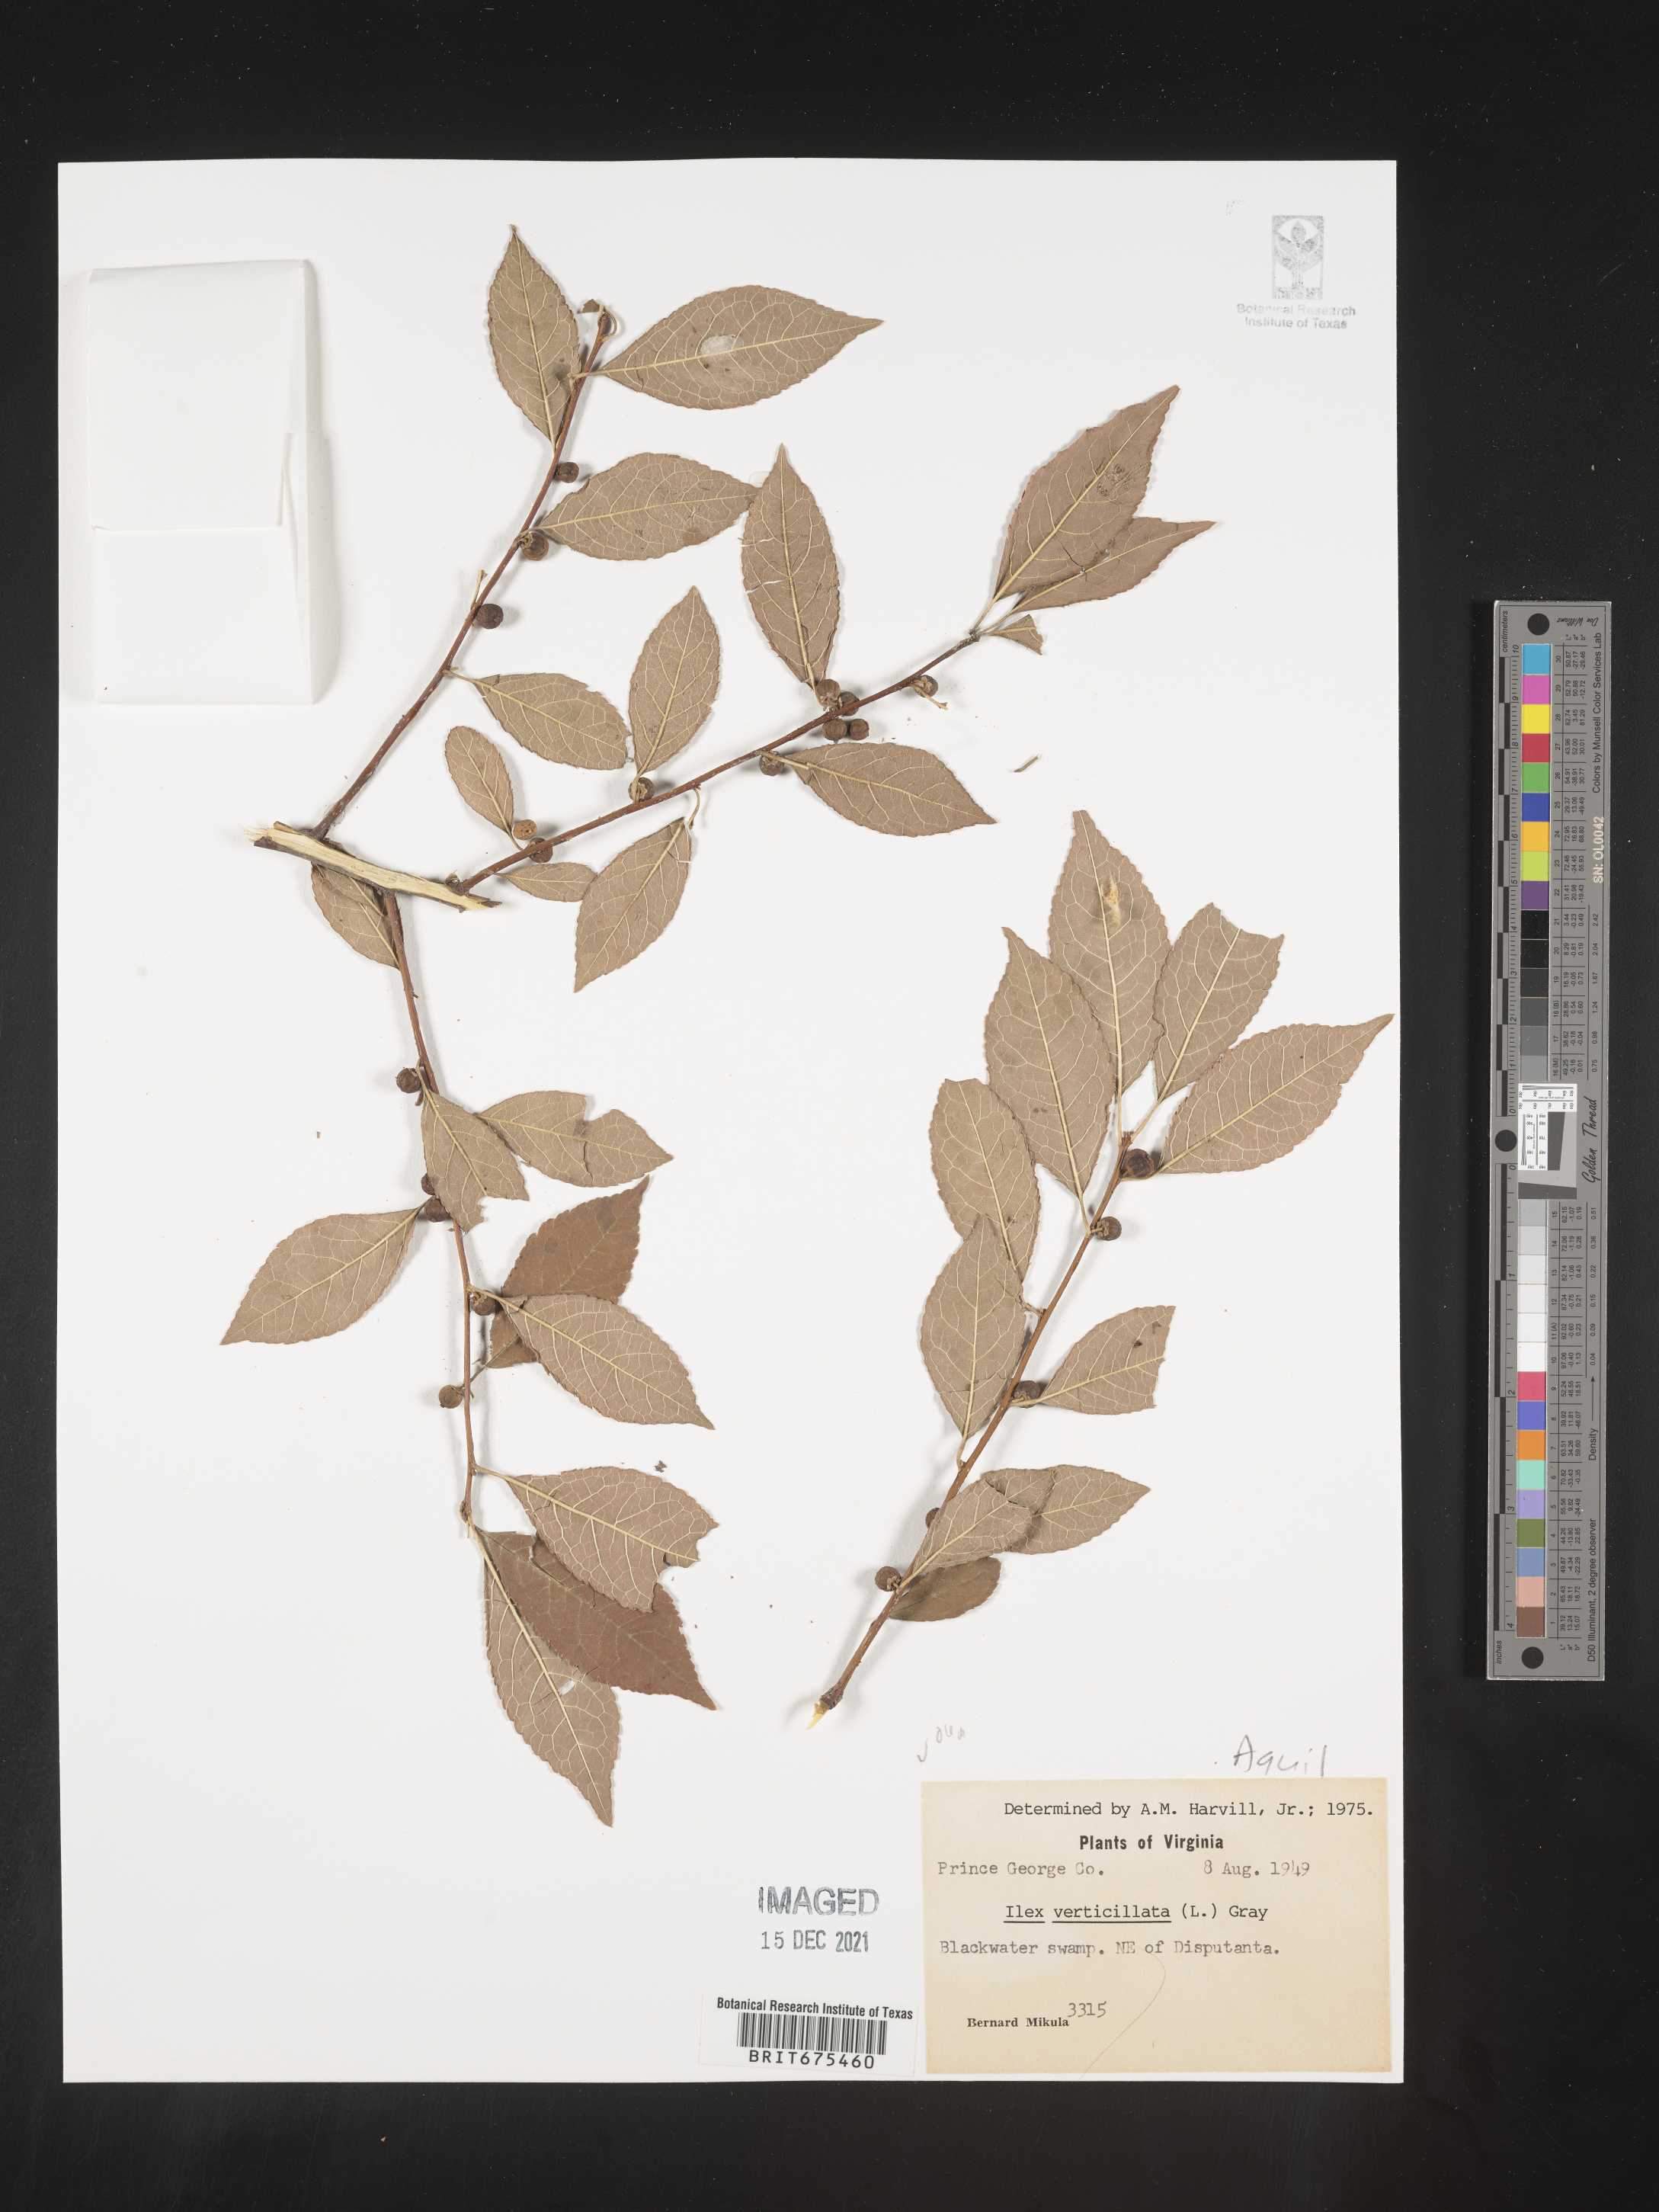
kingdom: Plantae
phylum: Tracheophyta
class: Magnoliopsida
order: Aquifoliales
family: Aquifoliaceae
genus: Ilex
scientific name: Ilex verticillata
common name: Virginia winterberry
